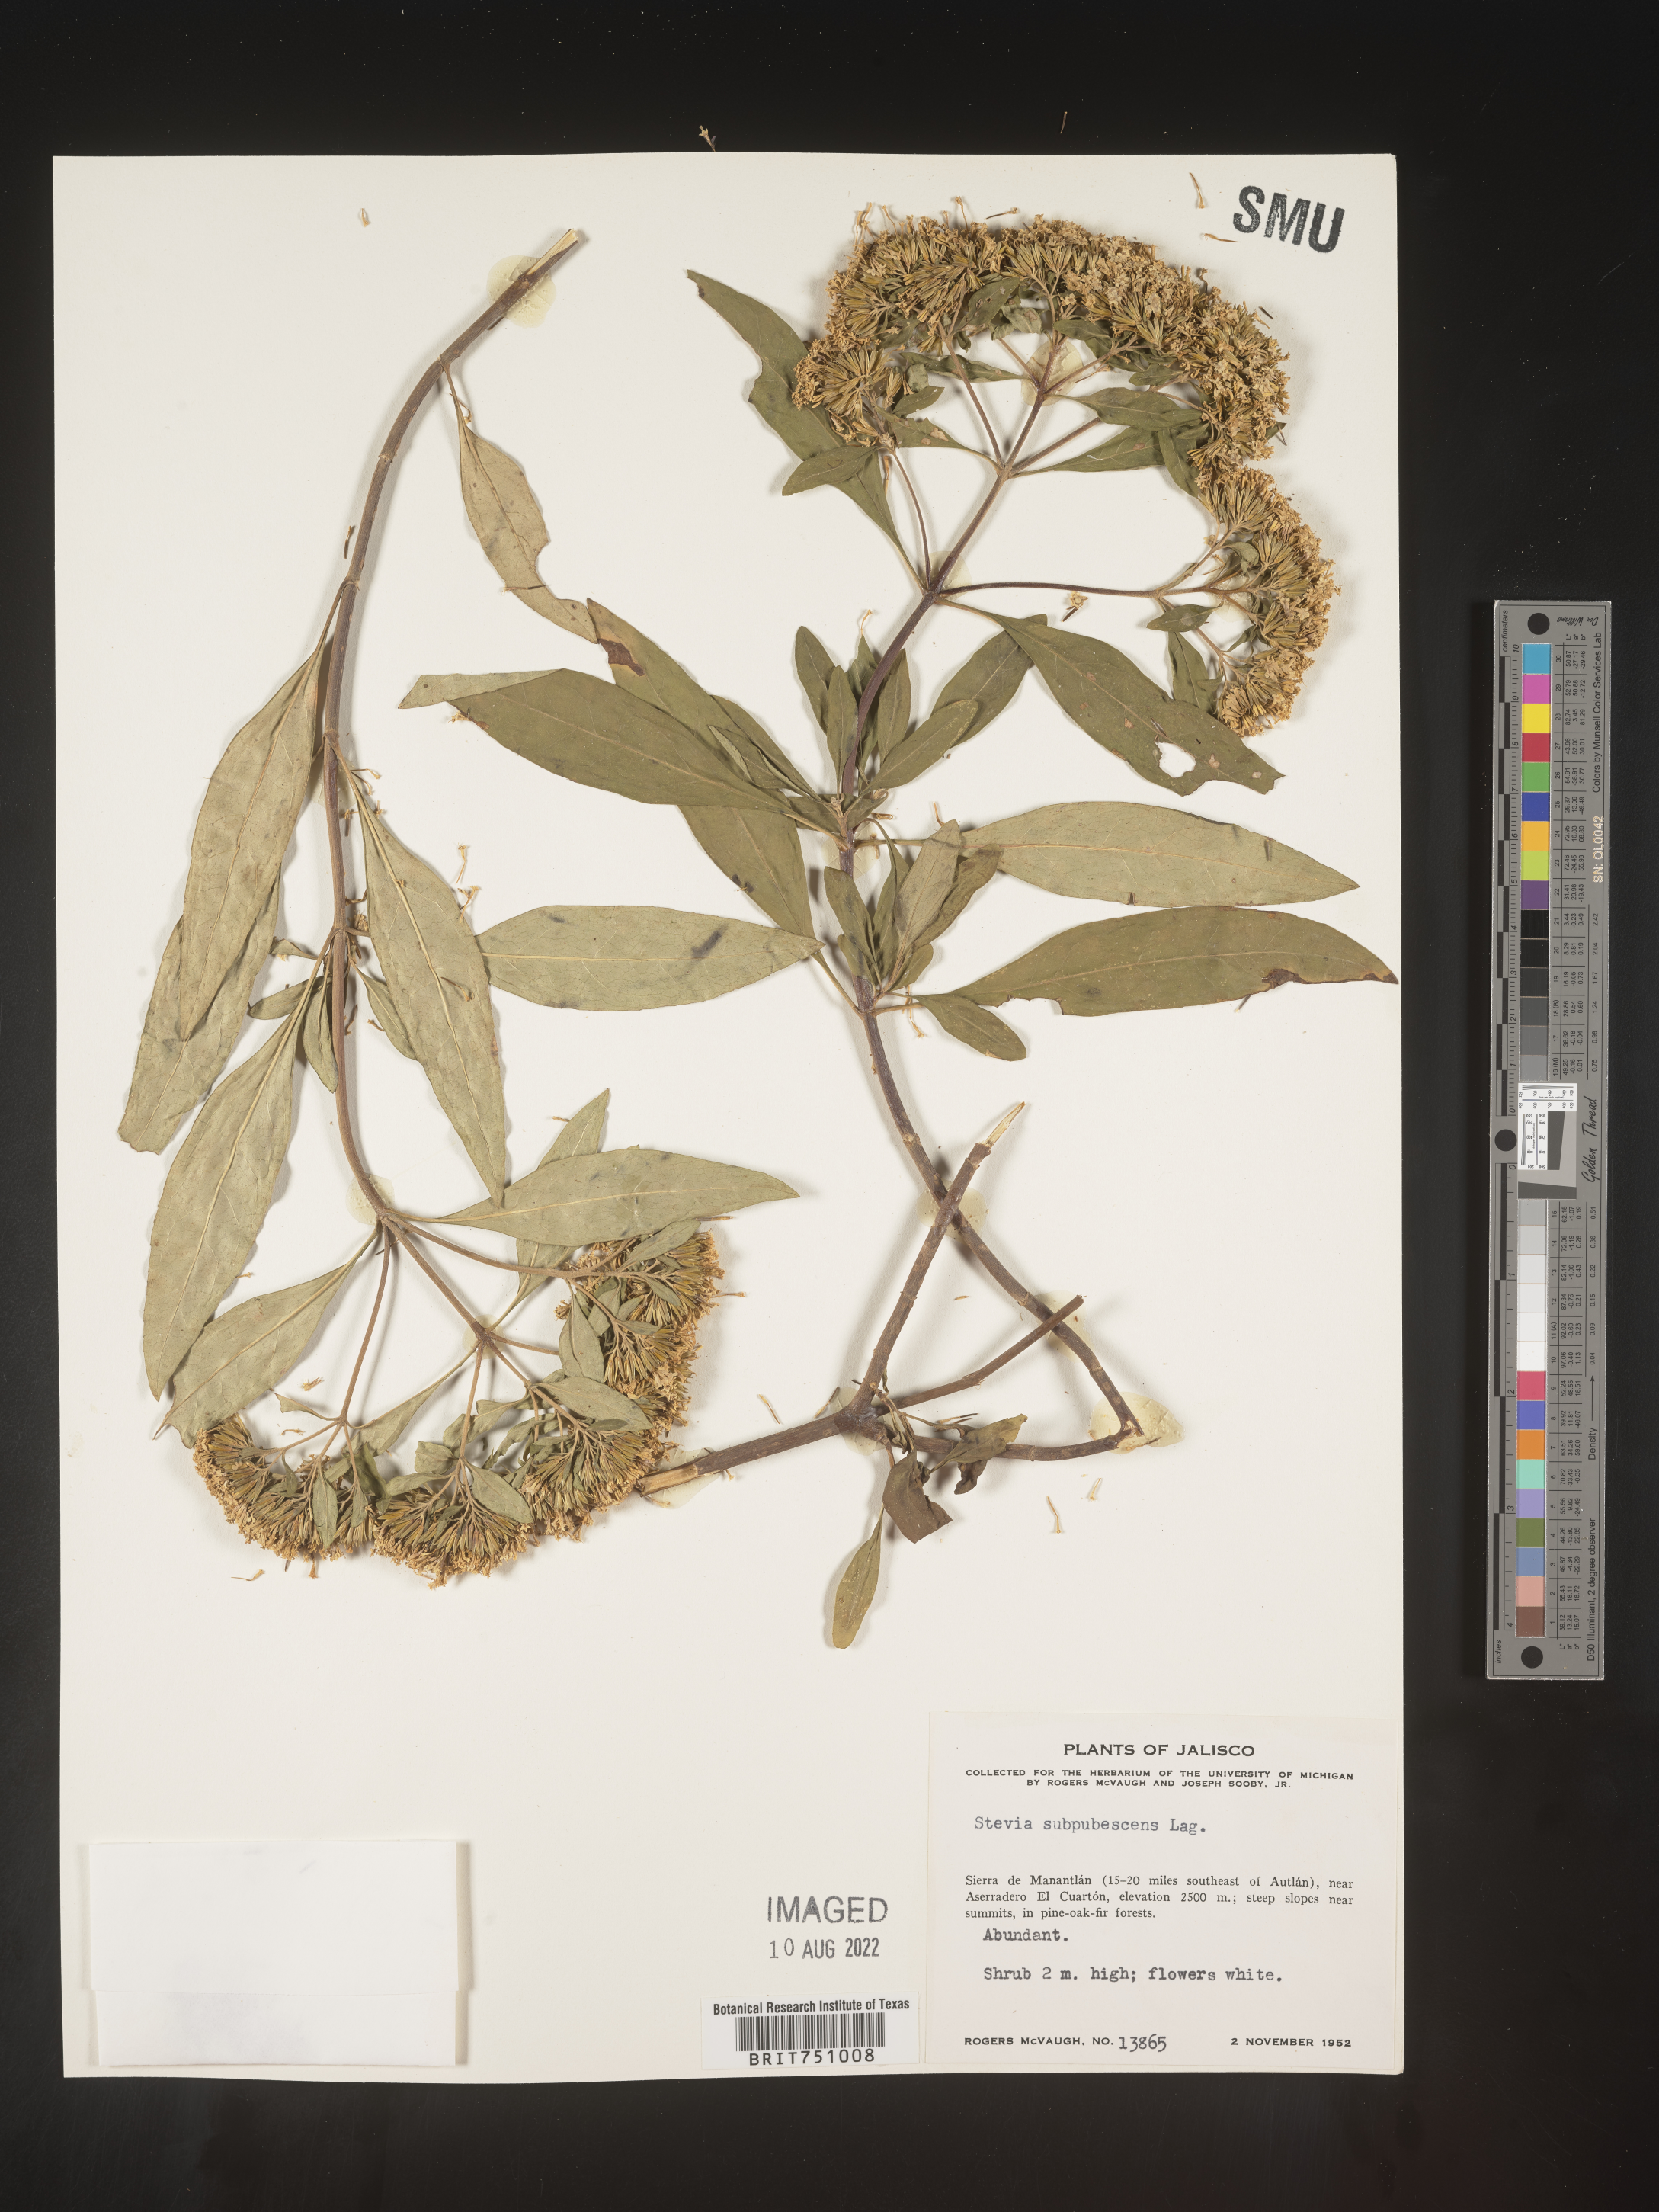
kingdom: Plantae
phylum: Tracheophyta
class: Magnoliopsida
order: Asterales
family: Asteraceae
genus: Stevia
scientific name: Stevia subpubescens
